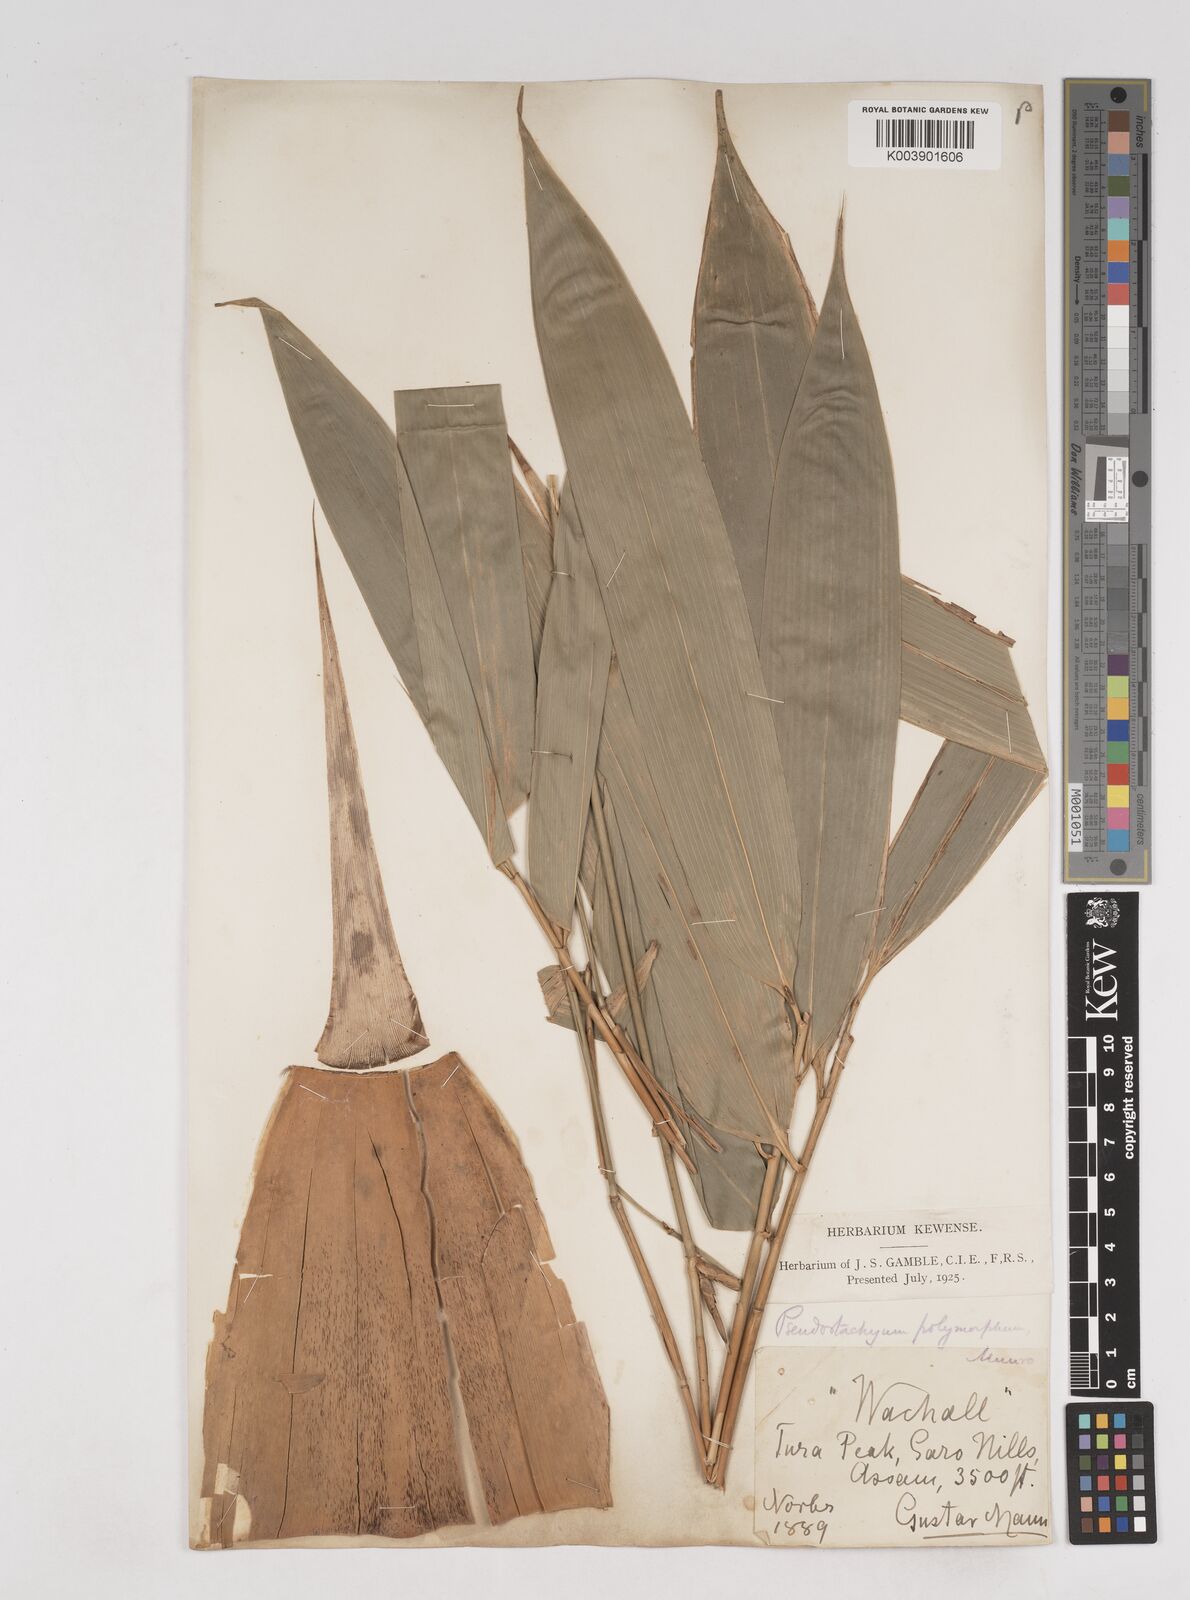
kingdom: Plantae
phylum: Tracheophyta
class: Liliopsida
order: Poales
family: Poaceae
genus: Pseudostachyum
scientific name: Pseudostachyum polymorphum
